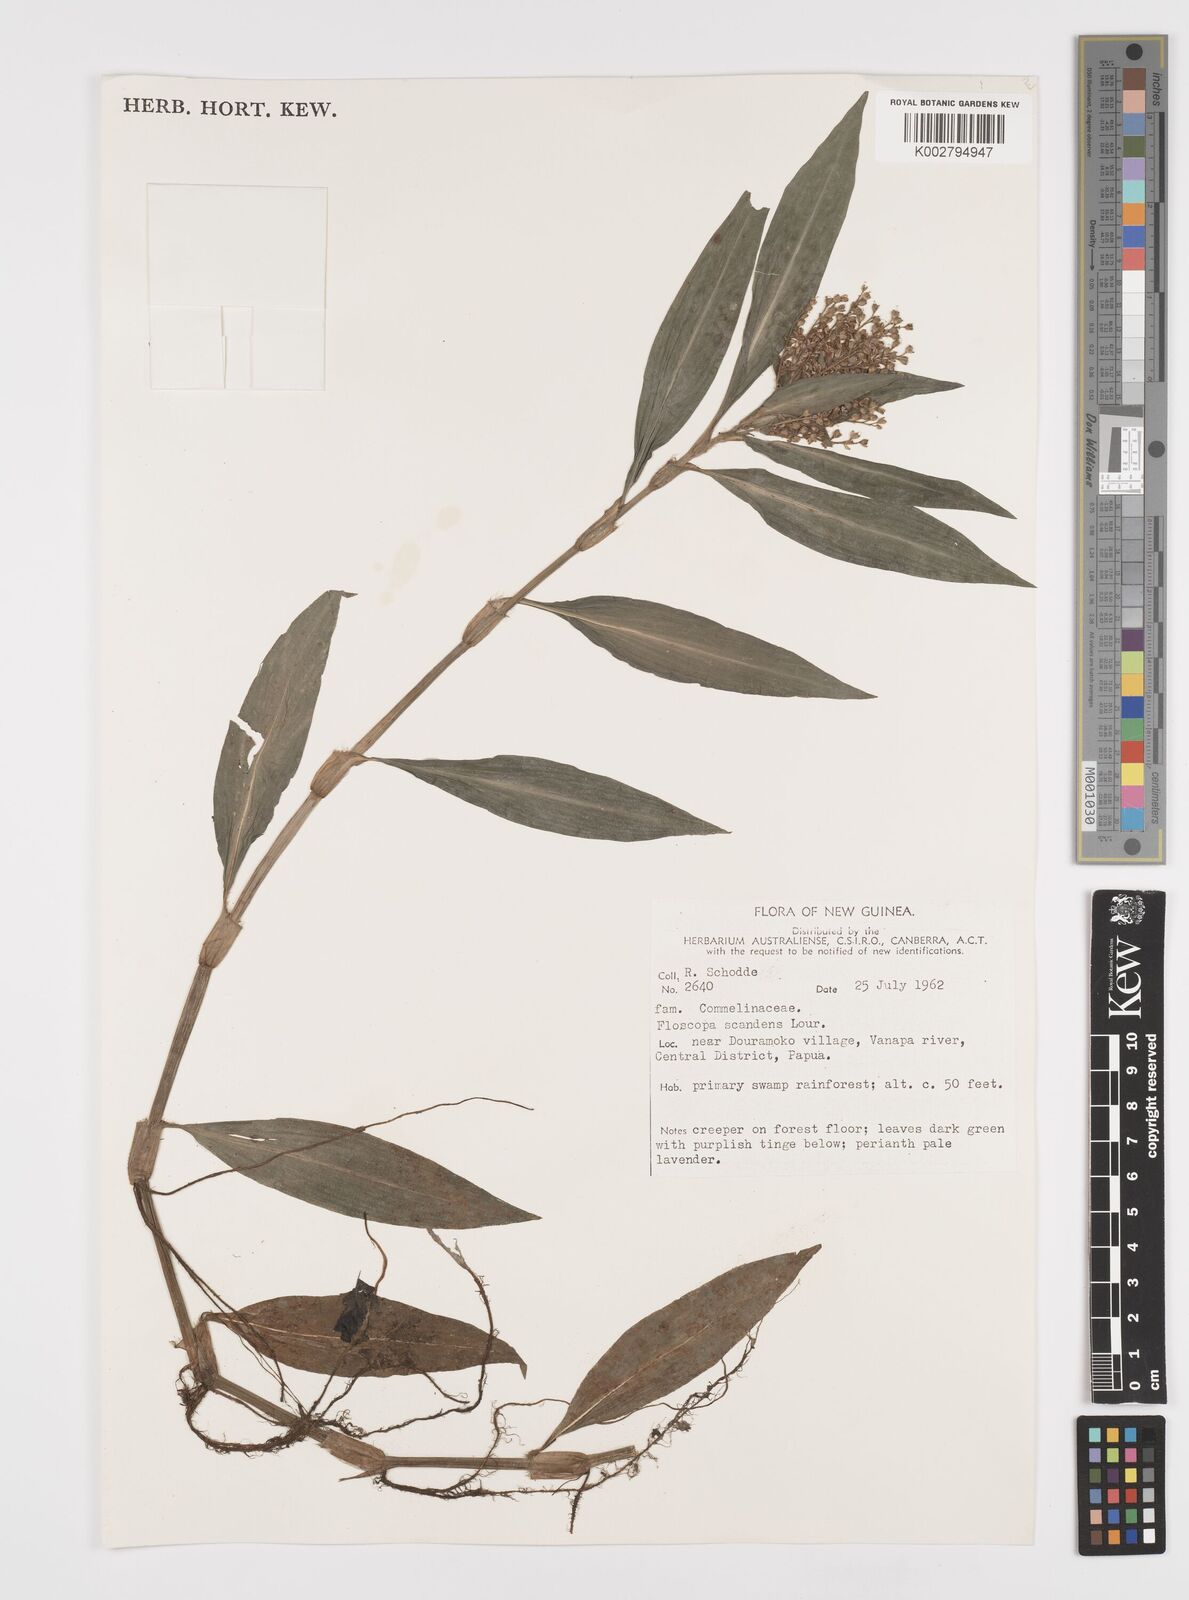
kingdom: Plantae
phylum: Tracheophyta
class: Liliopsida
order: Commelinales
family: Commelinaceae
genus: Floscopa
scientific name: Floscopa scandens
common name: Climbing flower cup
